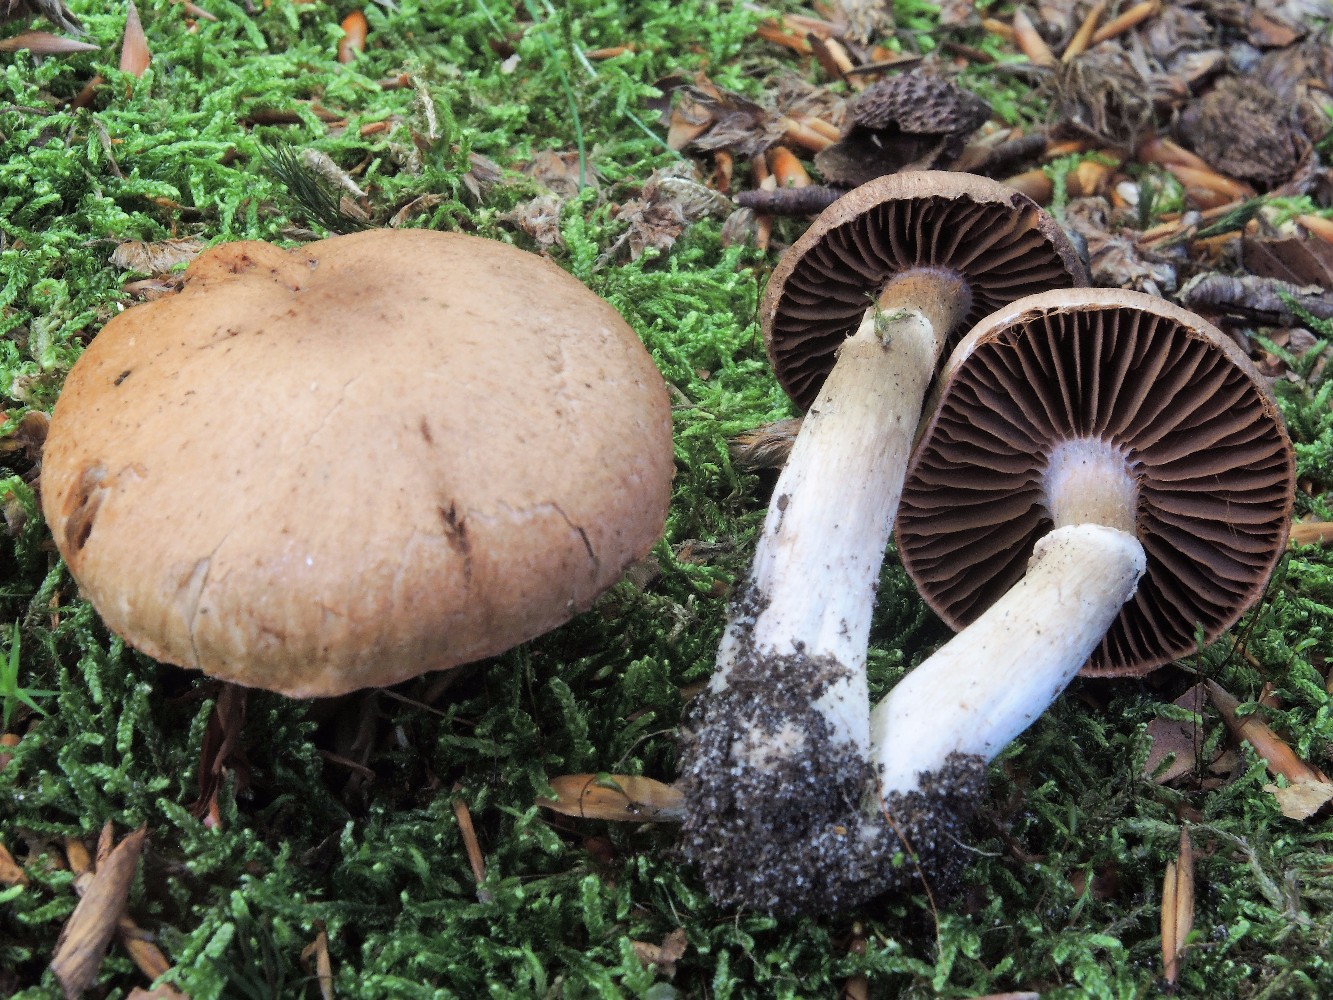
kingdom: Fungi
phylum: Basidiomycota
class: Agaricomycetes
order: Agaricales
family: Cortinariaceae
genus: Cortinarius
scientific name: Cortinarius torvus
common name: champignonagtig slørhat
